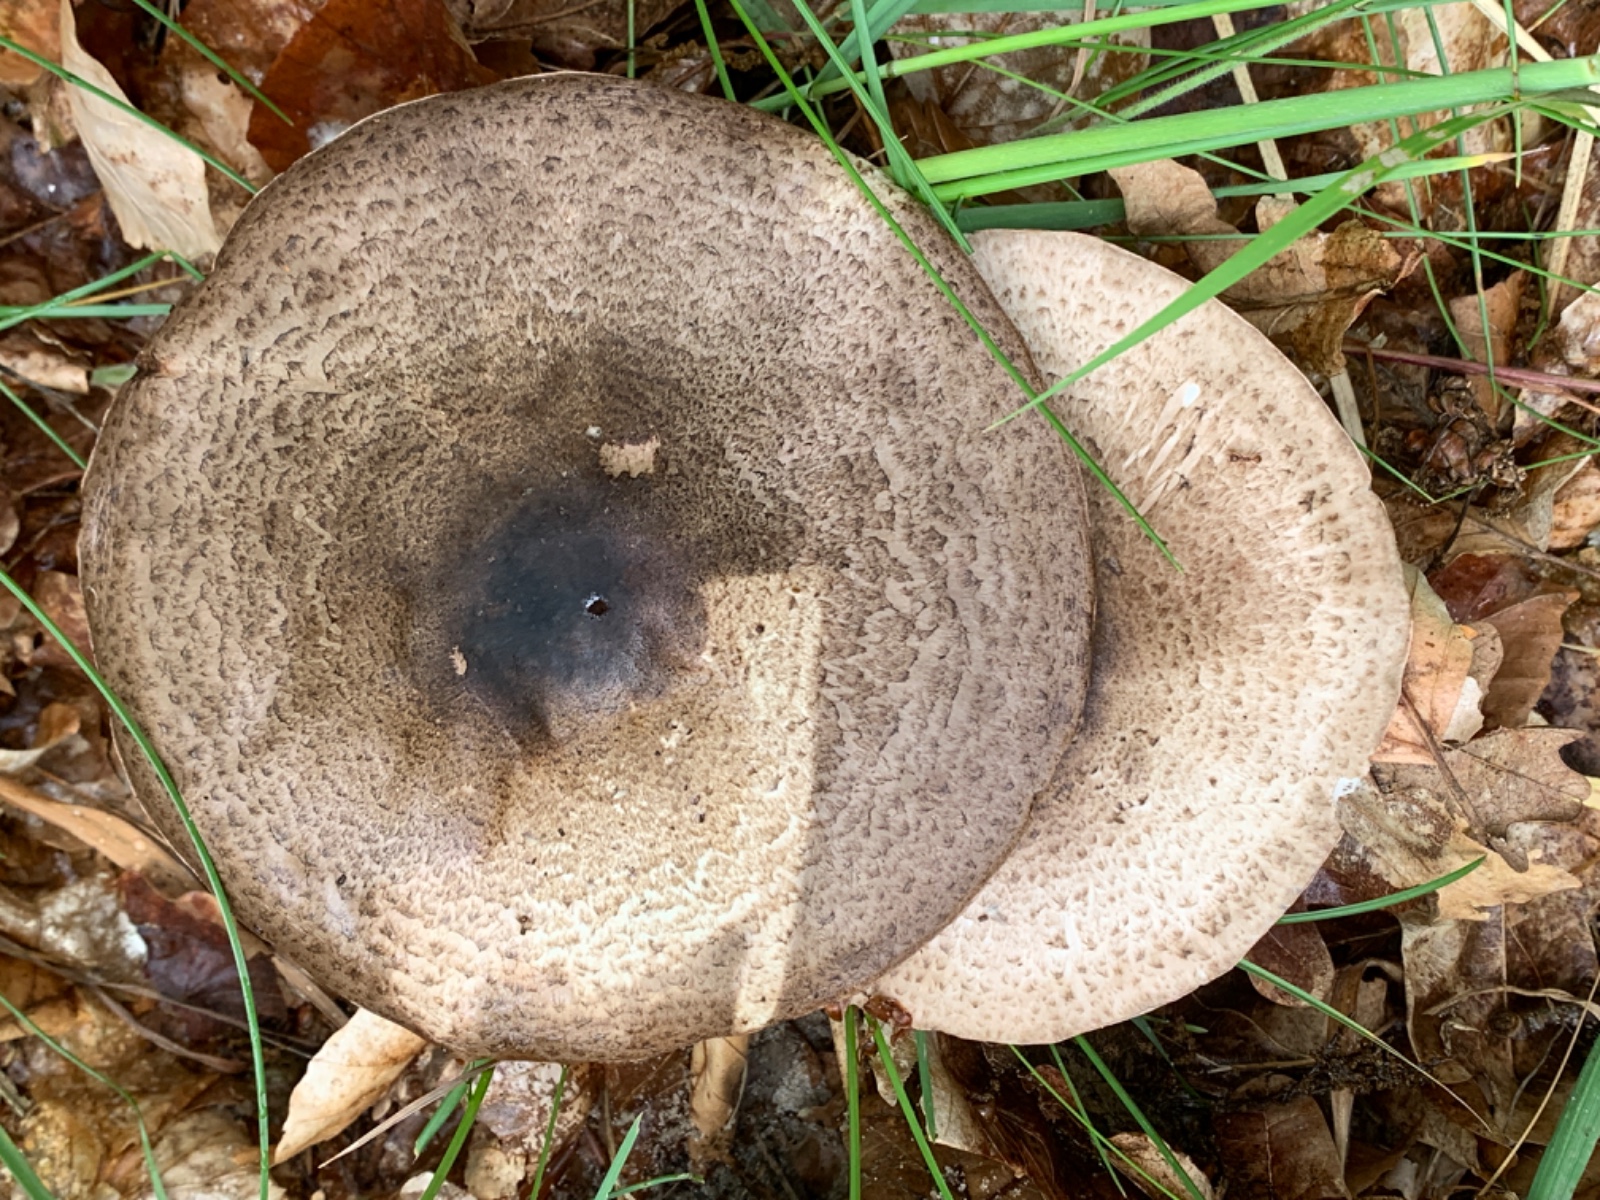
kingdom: Fungi
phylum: Basidiomycota
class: Agaricomycetes
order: Agaricales
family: Agaricaceae
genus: Agaricus
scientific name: Agaricus moelleri
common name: perlehøne-champignon
